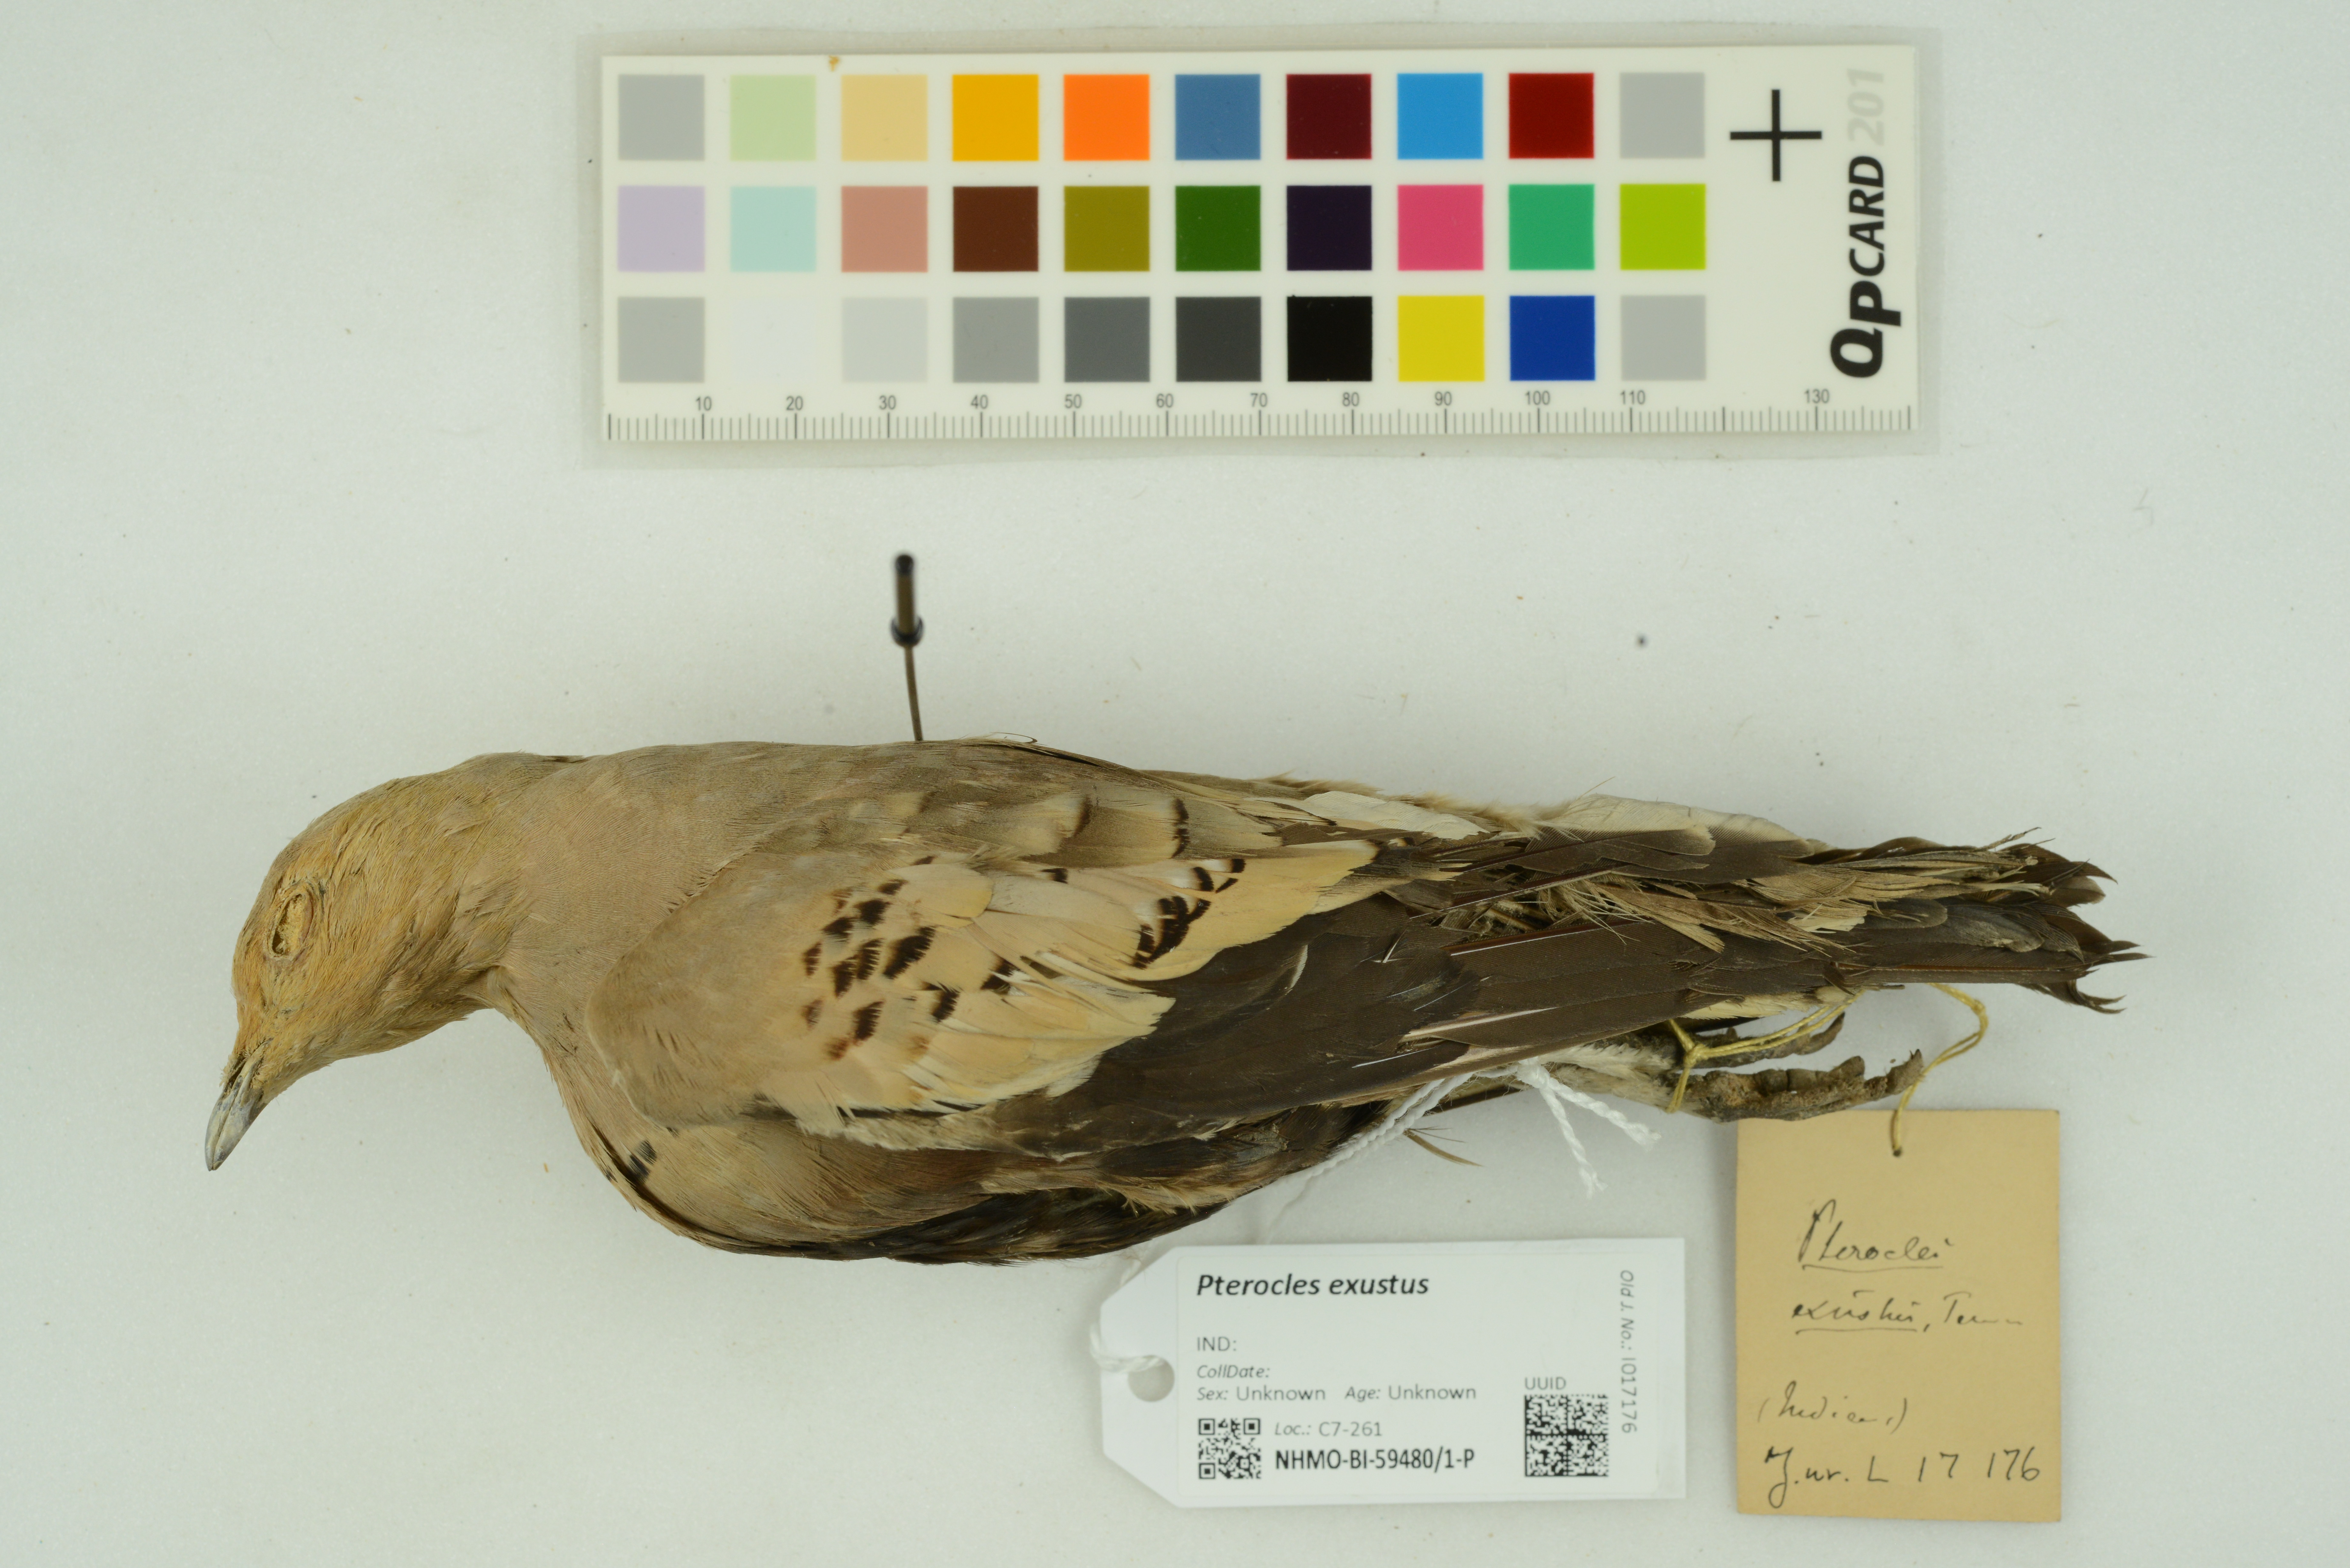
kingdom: Animalia
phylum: Chordata
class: Aves
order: Pteroclidiformes
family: Pteroclididae
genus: Pterocles
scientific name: Pterocles exustus
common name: Chestnut-bellied sandgrouse
